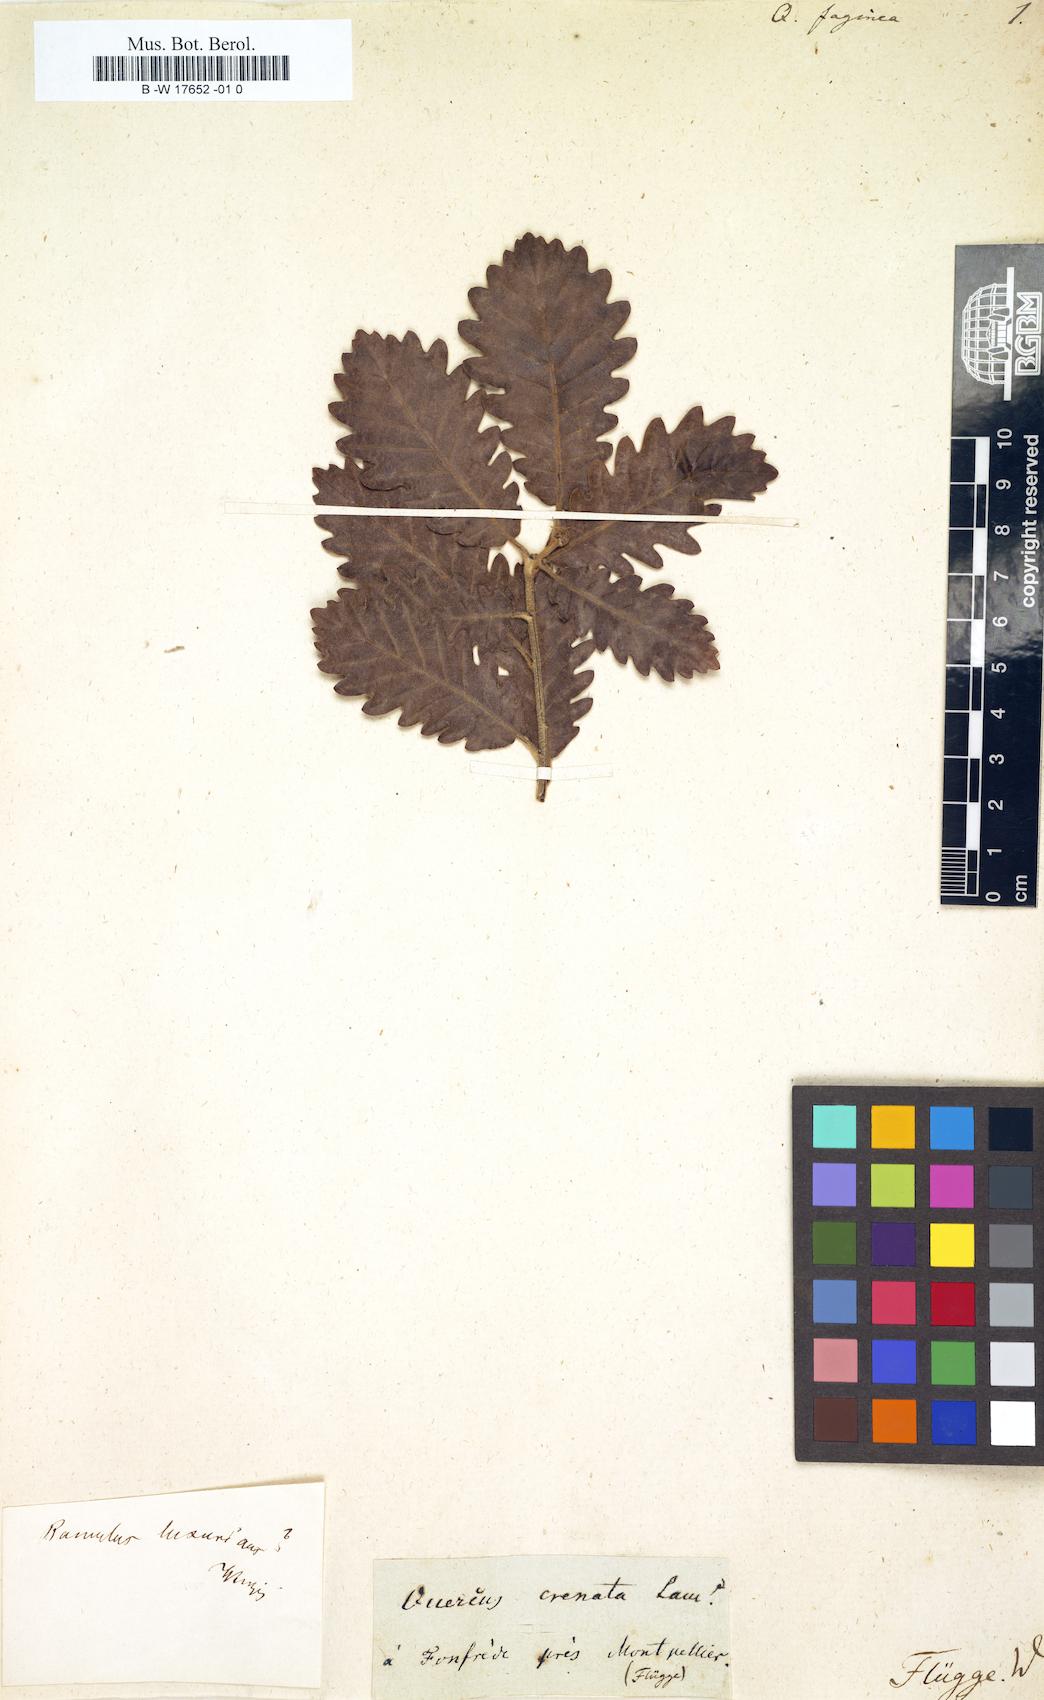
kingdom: Plantae
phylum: Tracheophyta
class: Magnoliopsida
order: Fagales
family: Fagaceae
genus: Quercus
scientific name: Quercus faginea
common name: Gall oak tree
